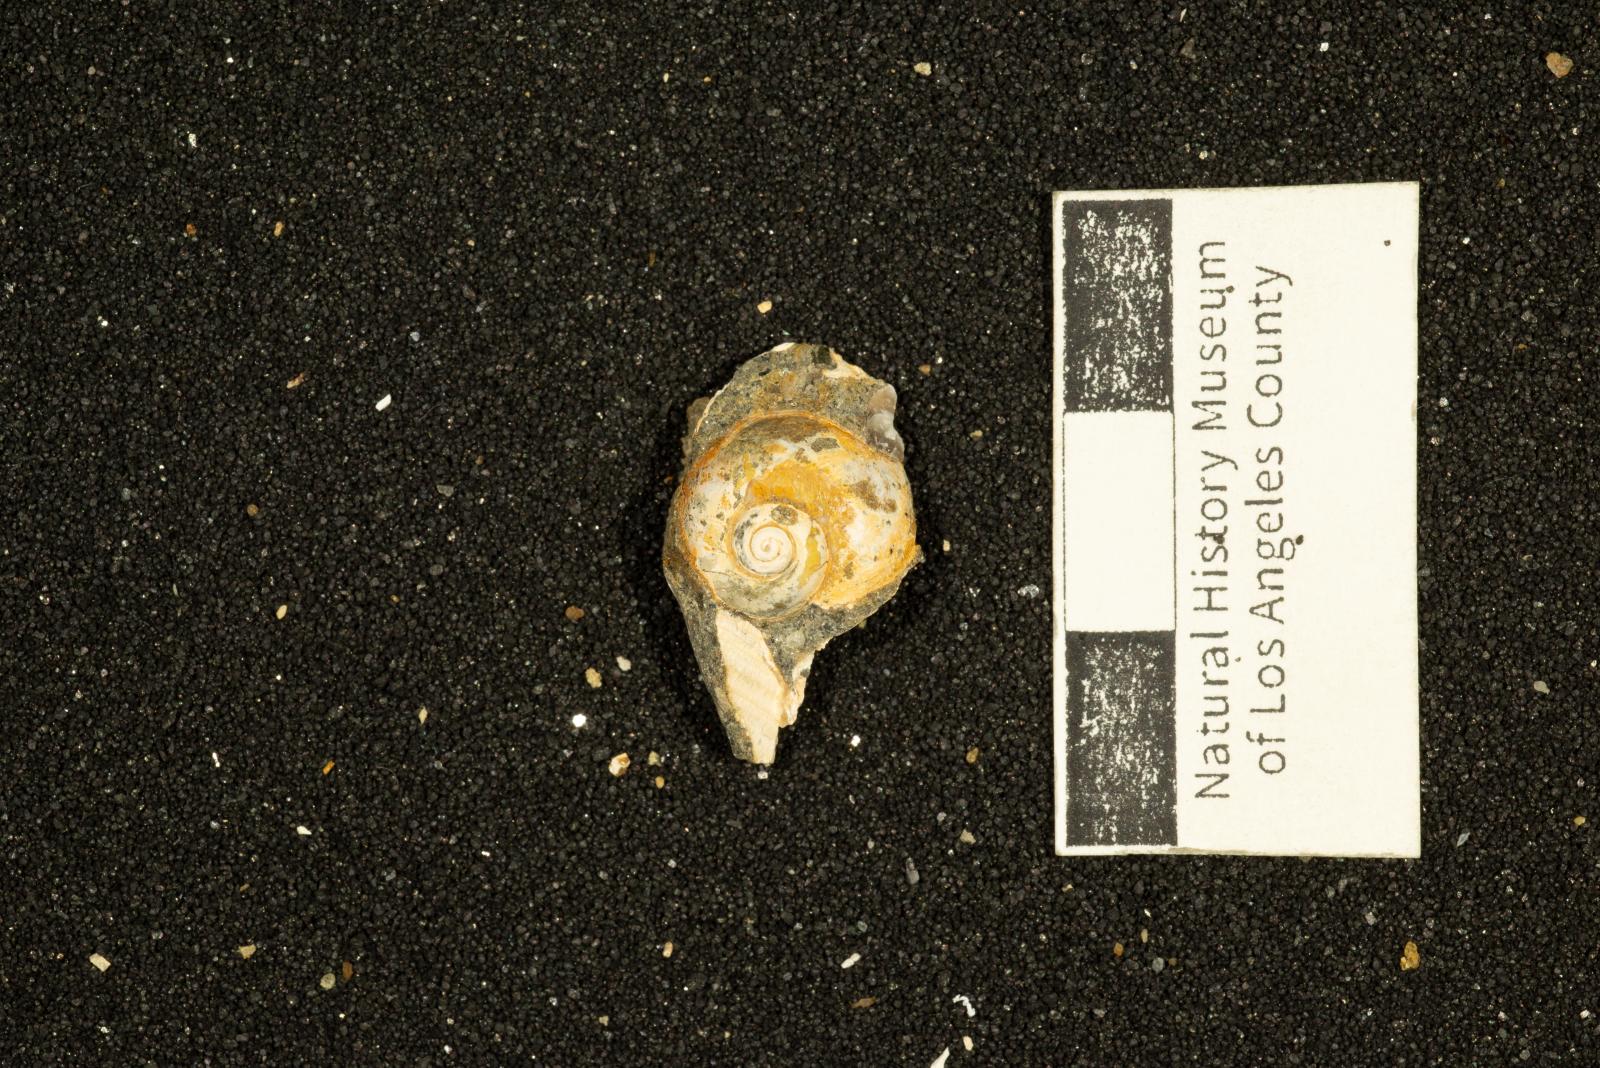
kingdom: Animalia
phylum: Mollusca
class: Gastropoda
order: Littorinimorpha
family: Naticidae
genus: Hypterita
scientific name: Hypterita robsauli
